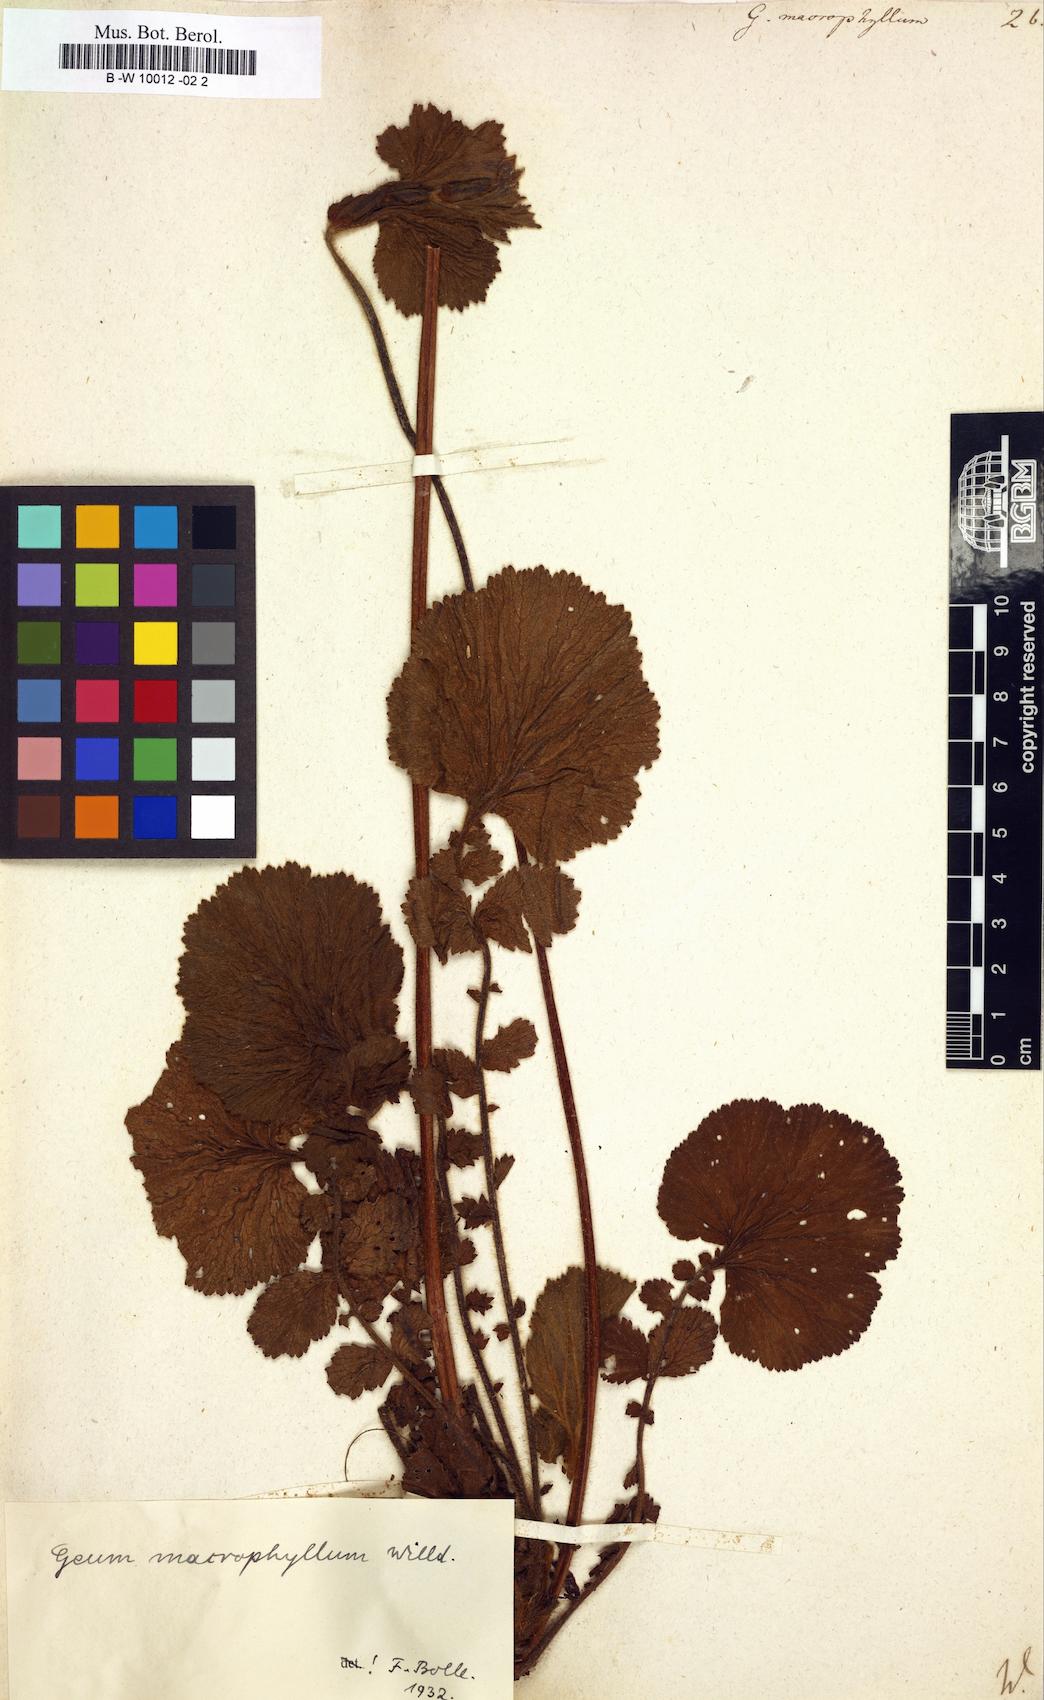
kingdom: Plantae
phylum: Tracheophyta
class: Magnoliopsida
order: Rosales
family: Rosaceae
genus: Geum
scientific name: Geum macrophyllum
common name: Large-leaved avens
